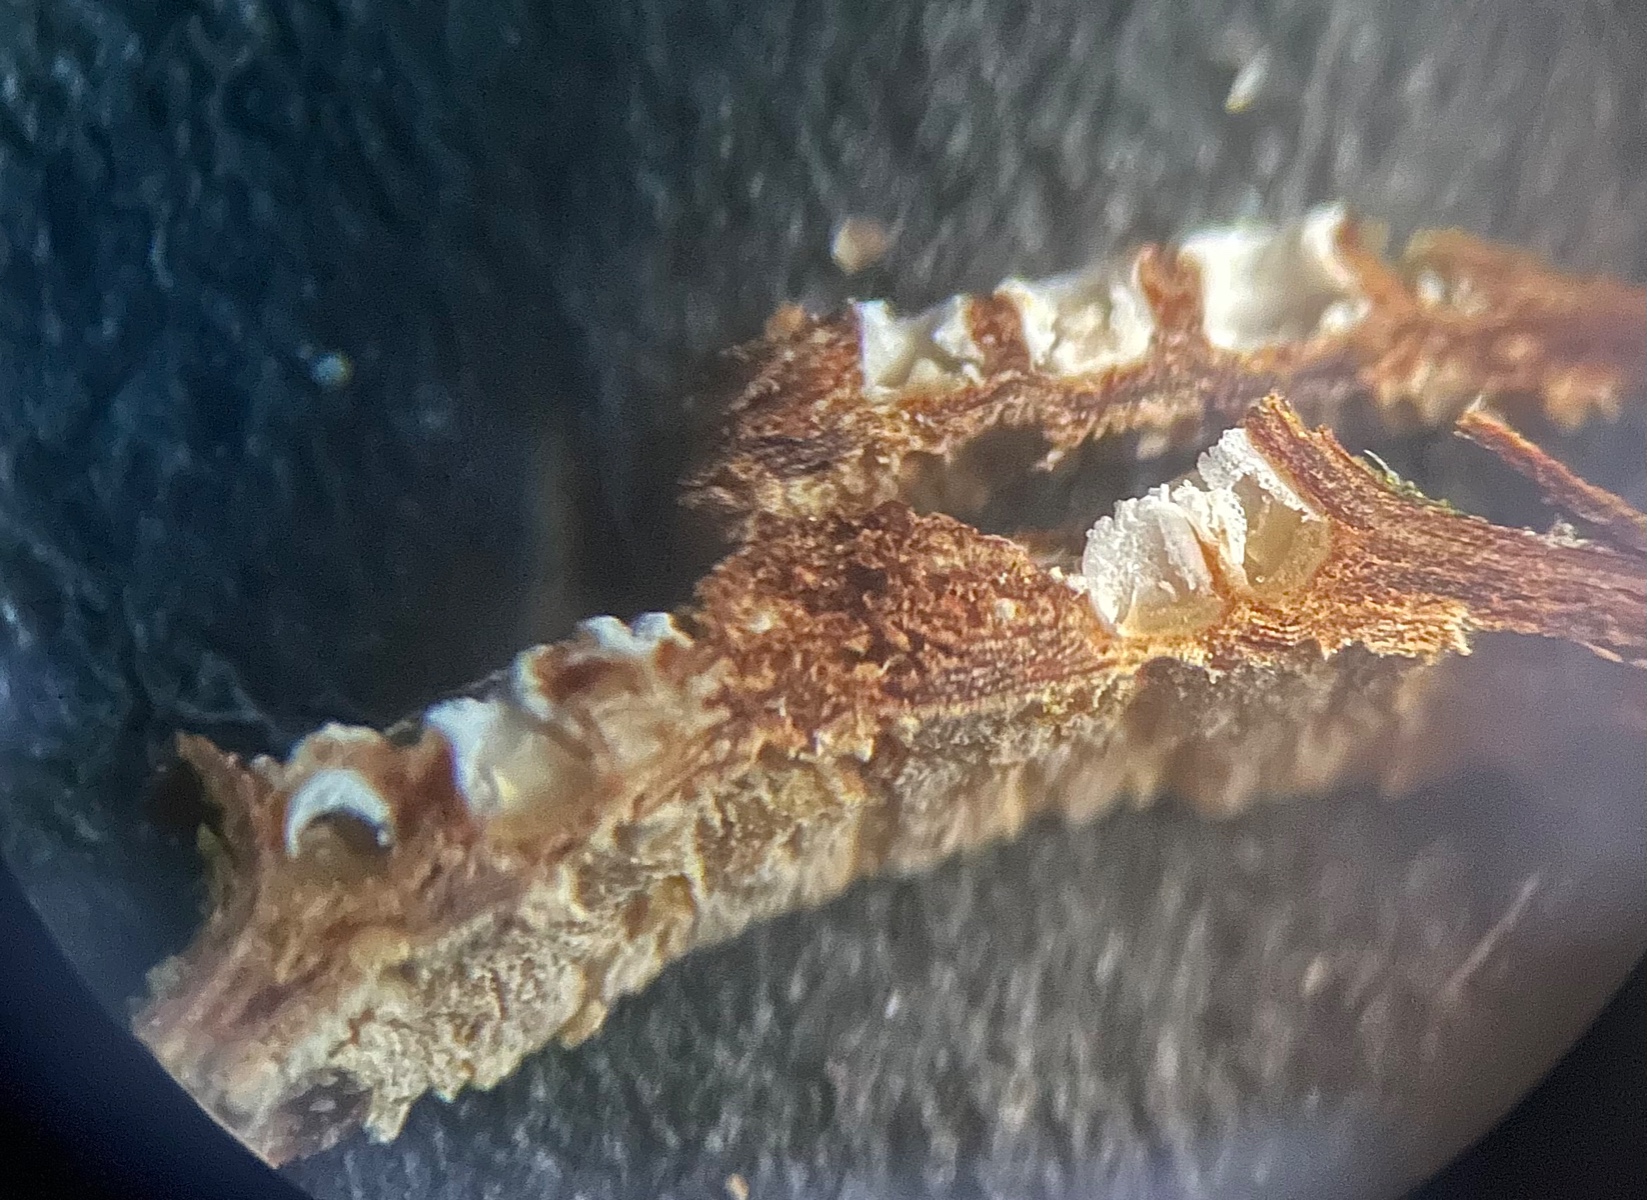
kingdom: Fungi
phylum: Ascomycota
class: Lecanoromycetes
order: Ostropales
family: Stictidaceae
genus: Stictis
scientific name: Stictis radiata
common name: tandet barkhul
